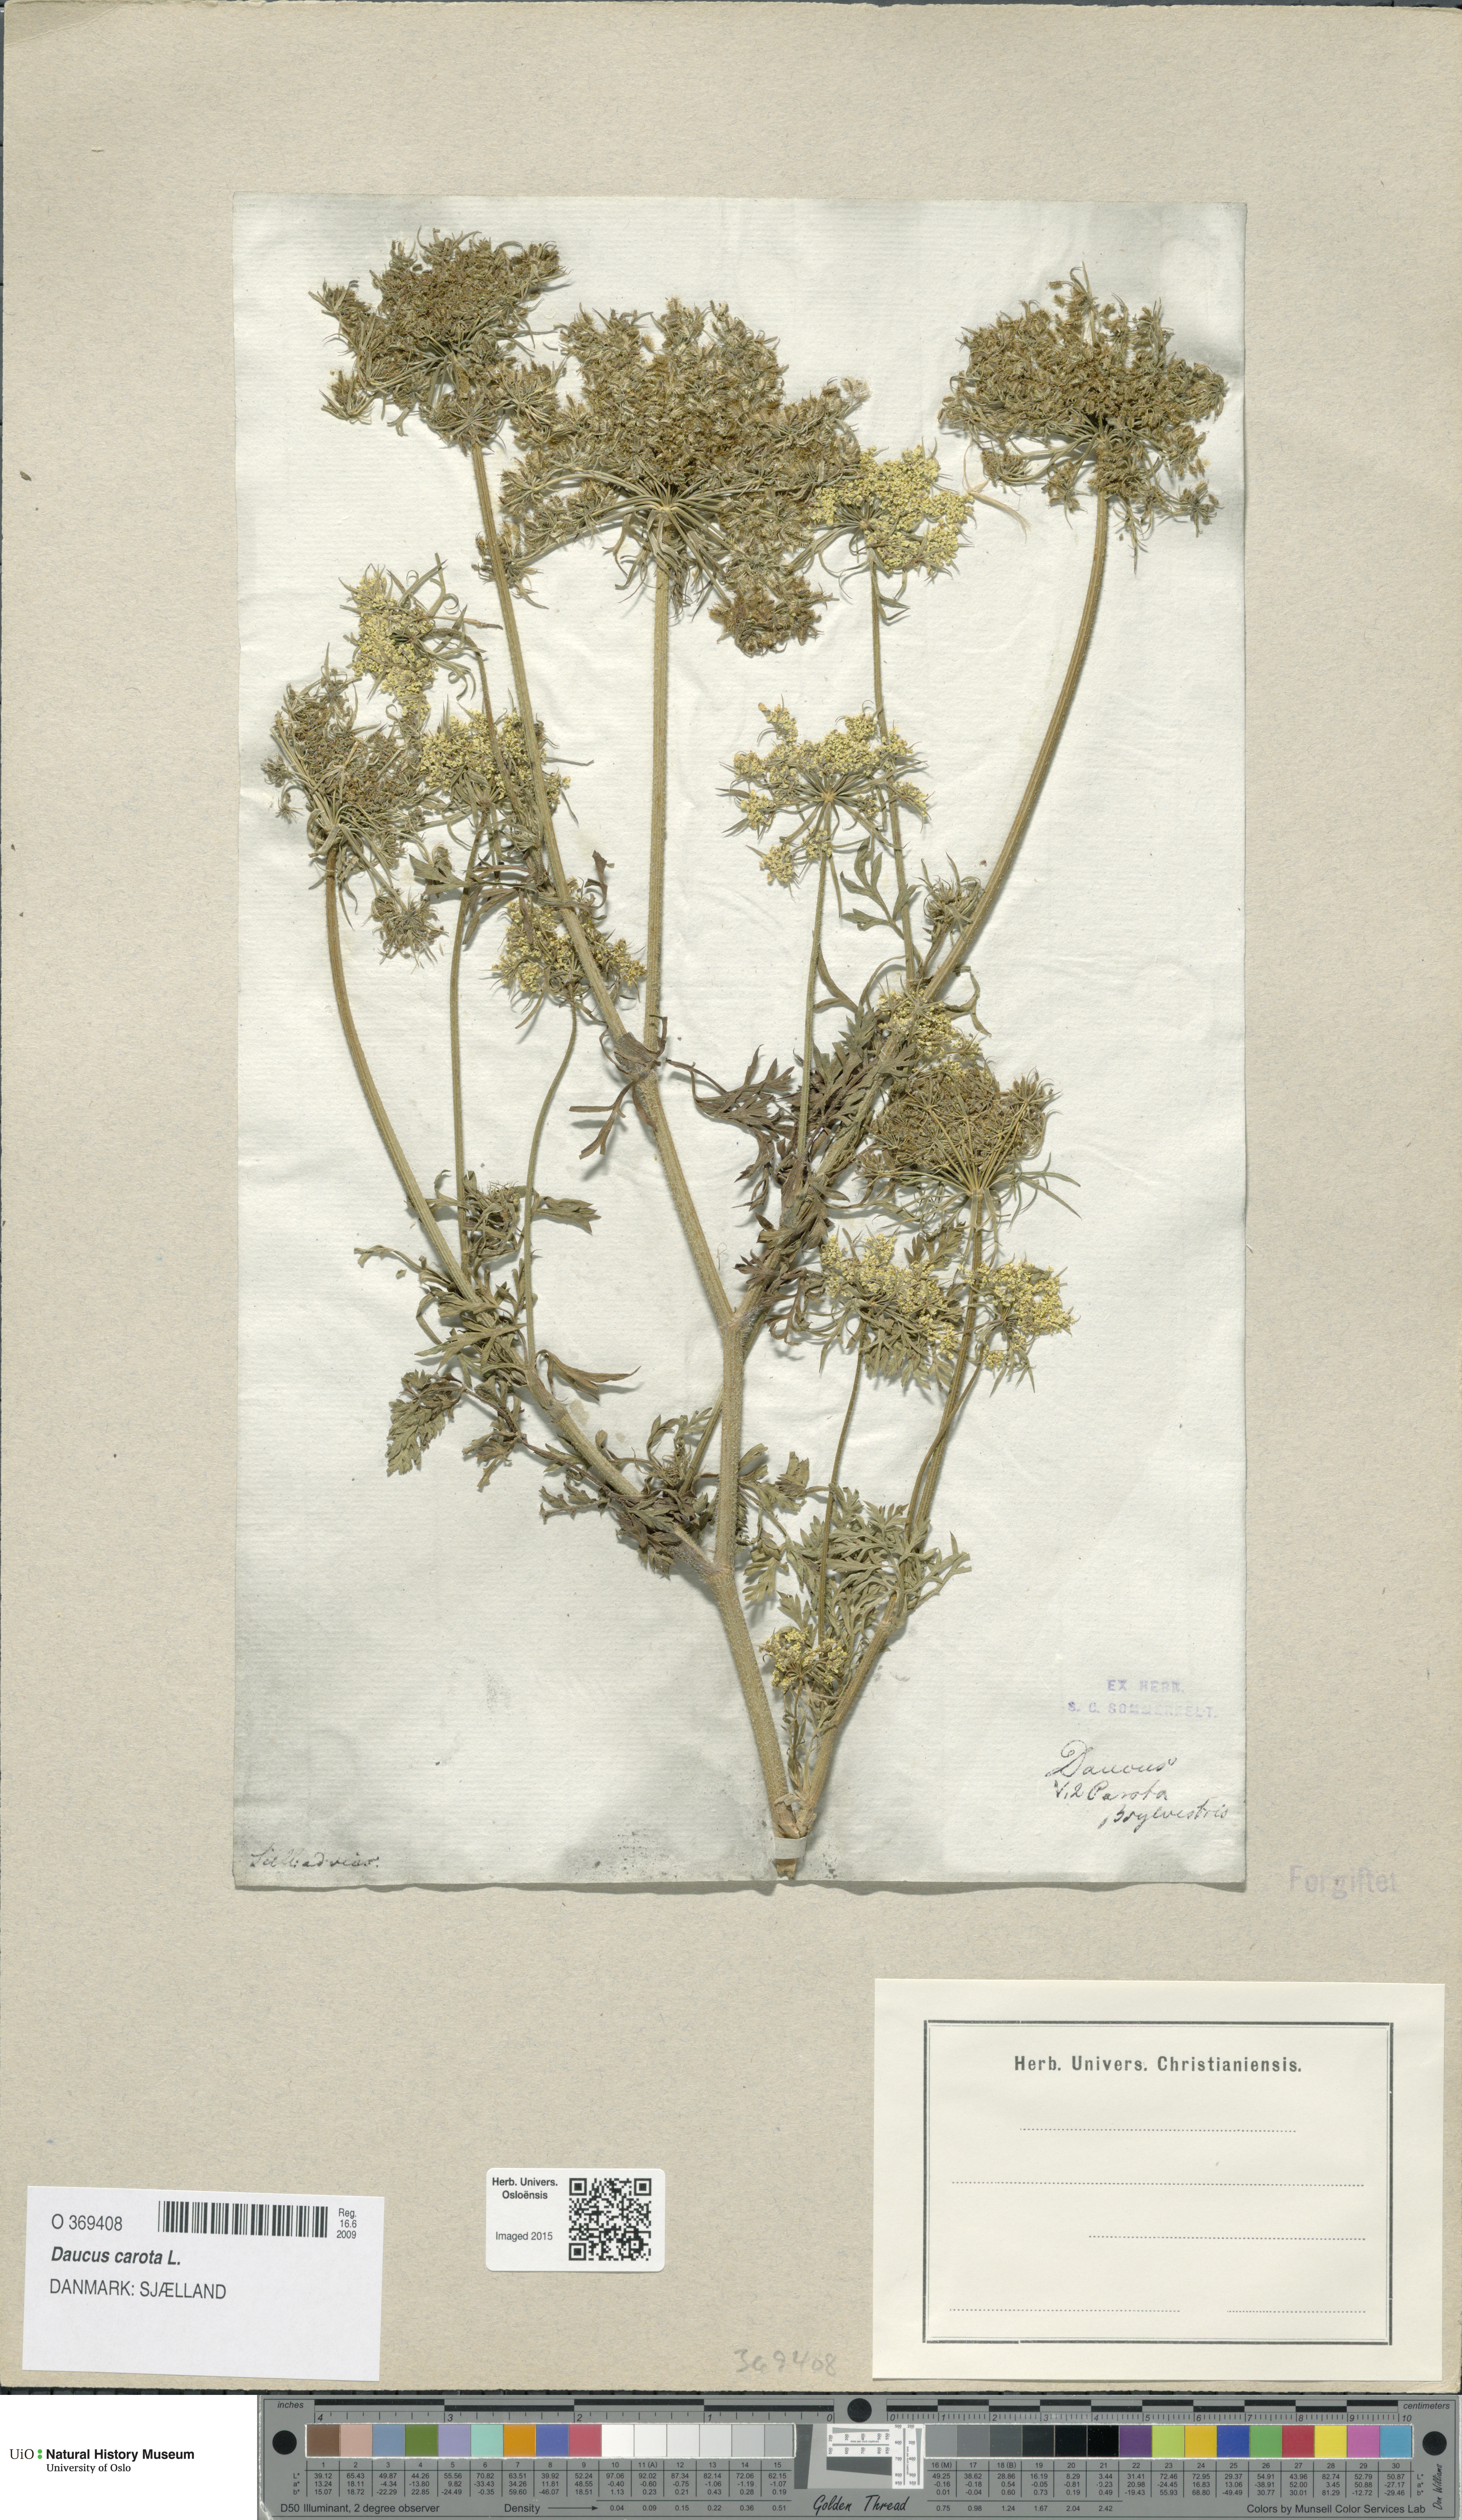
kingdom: Plantae
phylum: Tracheophyta
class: Magnoliopsida
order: Apiales
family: Apiaceae
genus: Daucus
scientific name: Daucus carota
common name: Wild carrot
